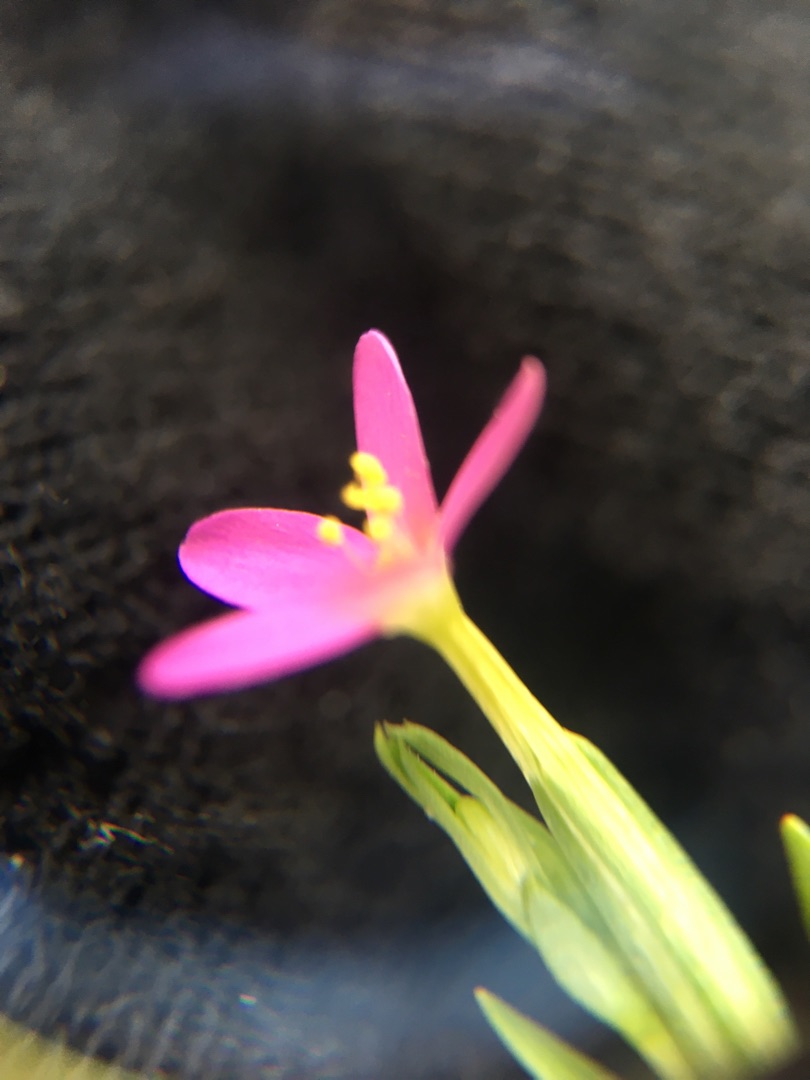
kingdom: Plantae
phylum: Tracheophyta
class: Magnoliopsida
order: Gentianales
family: Gentianaceae
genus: Centaurium
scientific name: Centaurium pulchellum
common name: Liden tusindgylden
